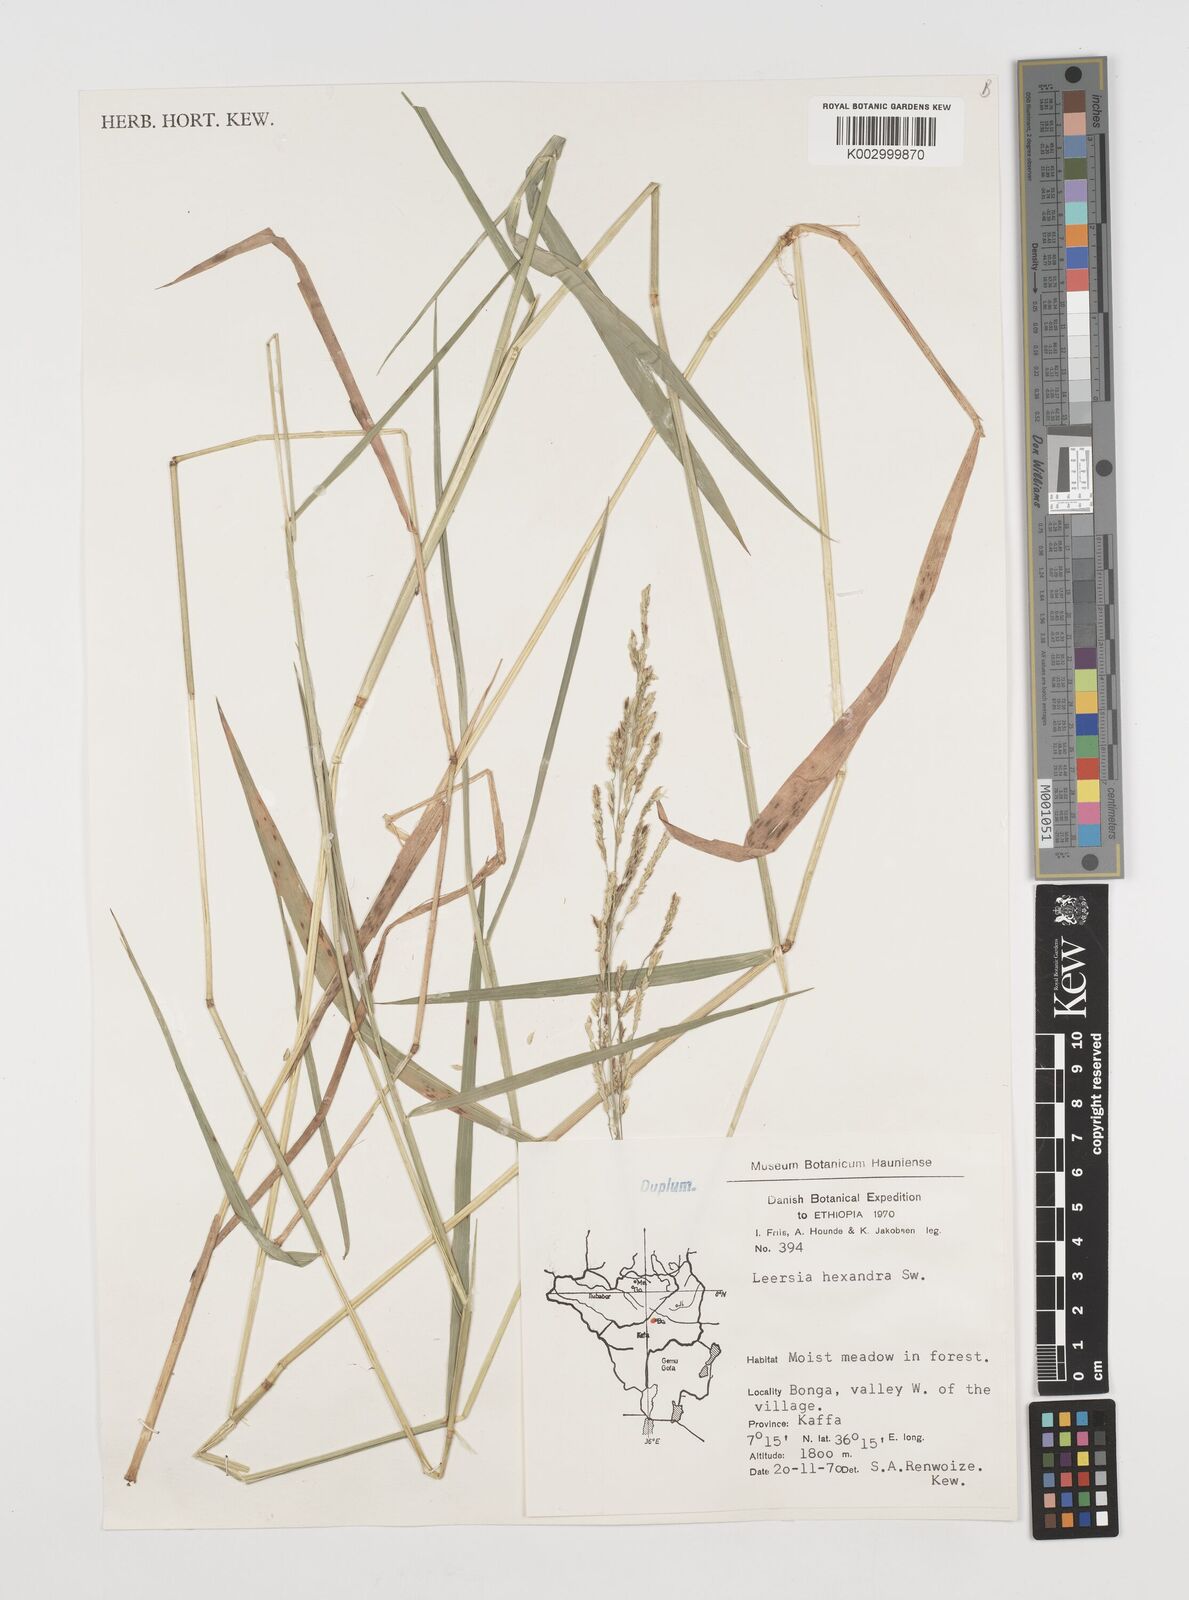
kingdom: Plantae
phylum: Tracheophyta
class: Liliopsida
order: Poales
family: Poaceae
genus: Leersia
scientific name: Leersia hexandra
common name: Southern cut grass
